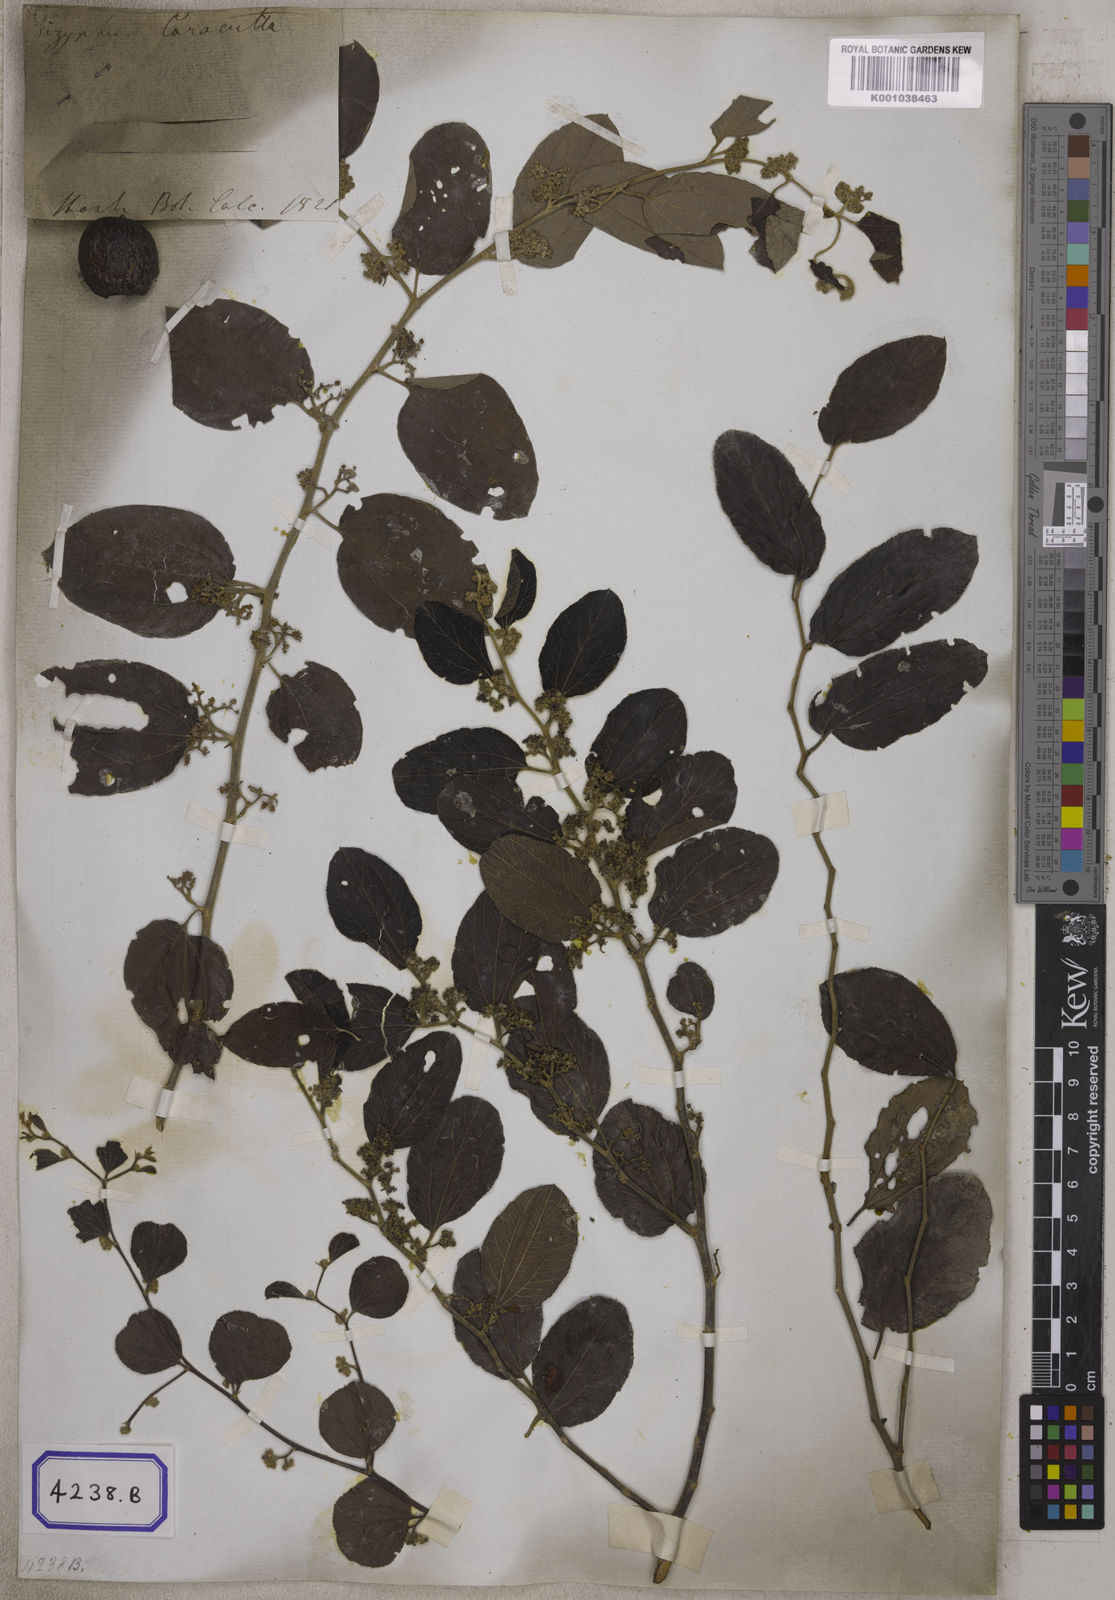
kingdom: Plantae
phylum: Tracheophyta
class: Magnoliopsida
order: Rosales
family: Rhamnaceae
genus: Ziziphus
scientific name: Ziziphus
